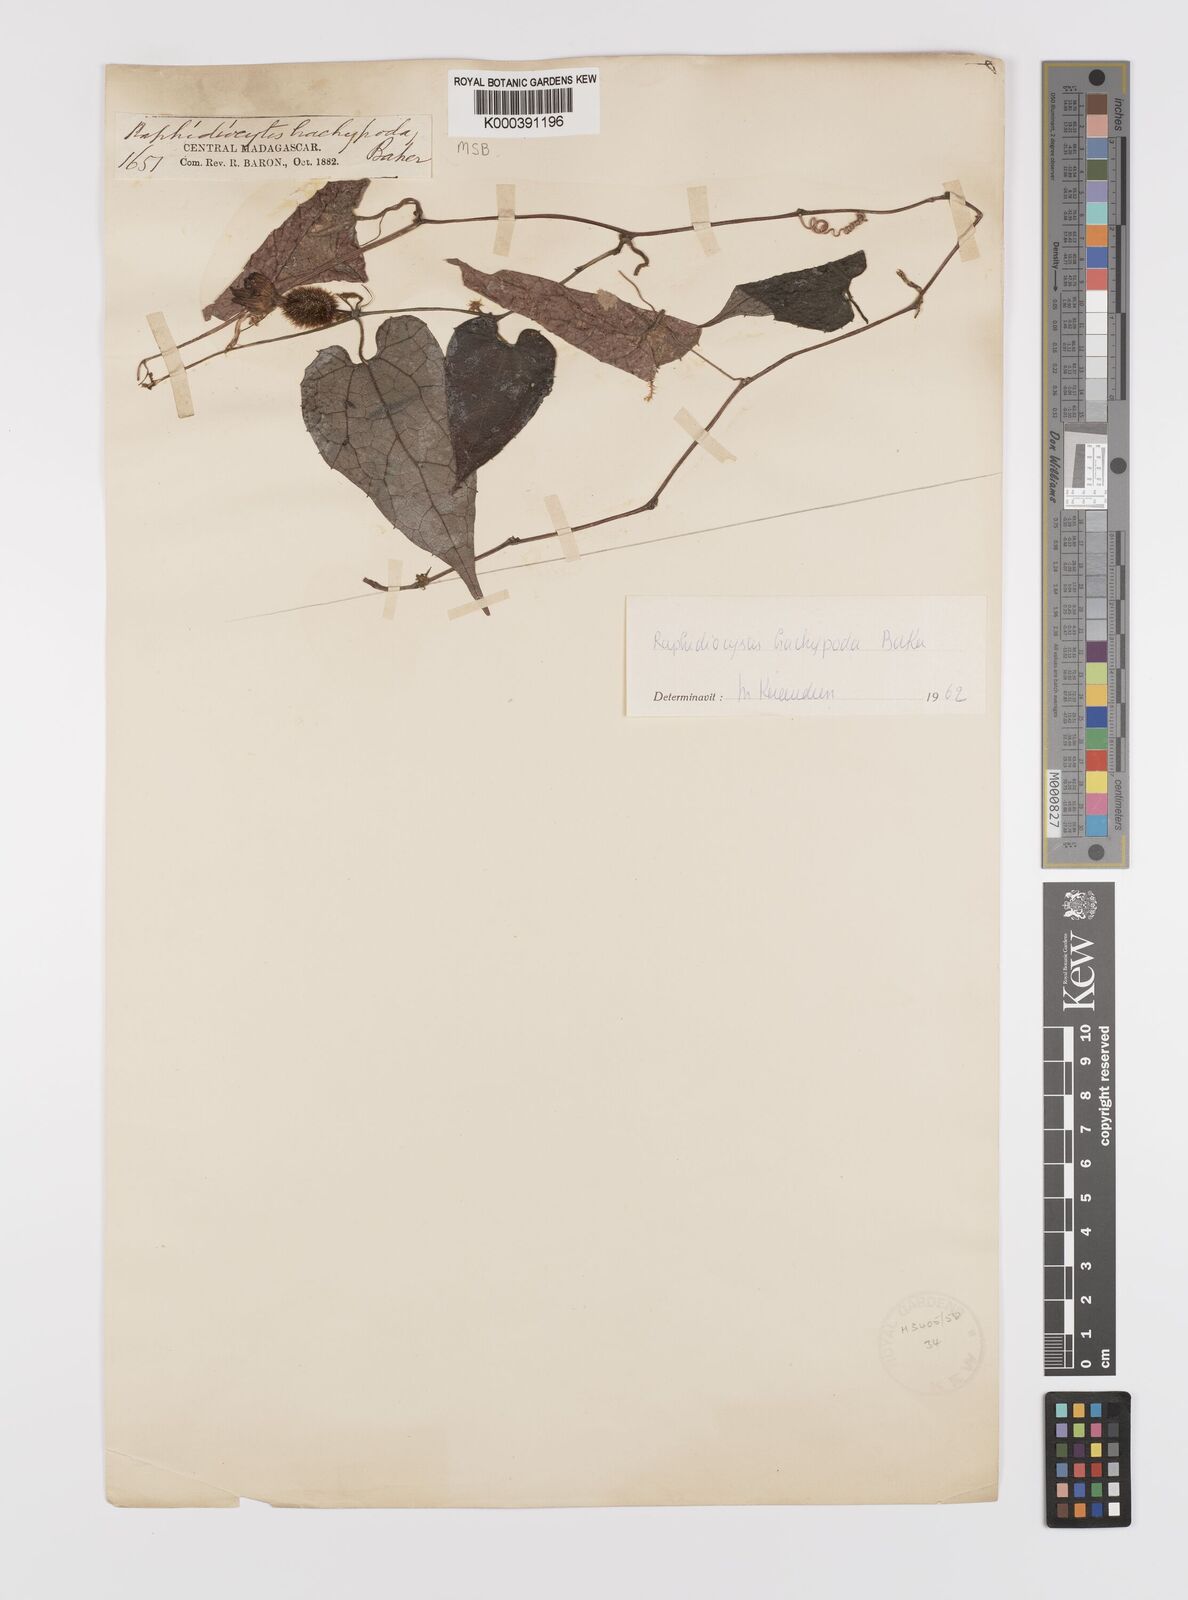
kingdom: Plantae
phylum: Tracheophyta
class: Magnoliopsida
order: Cucurbitales
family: Cucurbitaceae
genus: Raphidiocystis
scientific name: Raphidiocystis brachypoda
